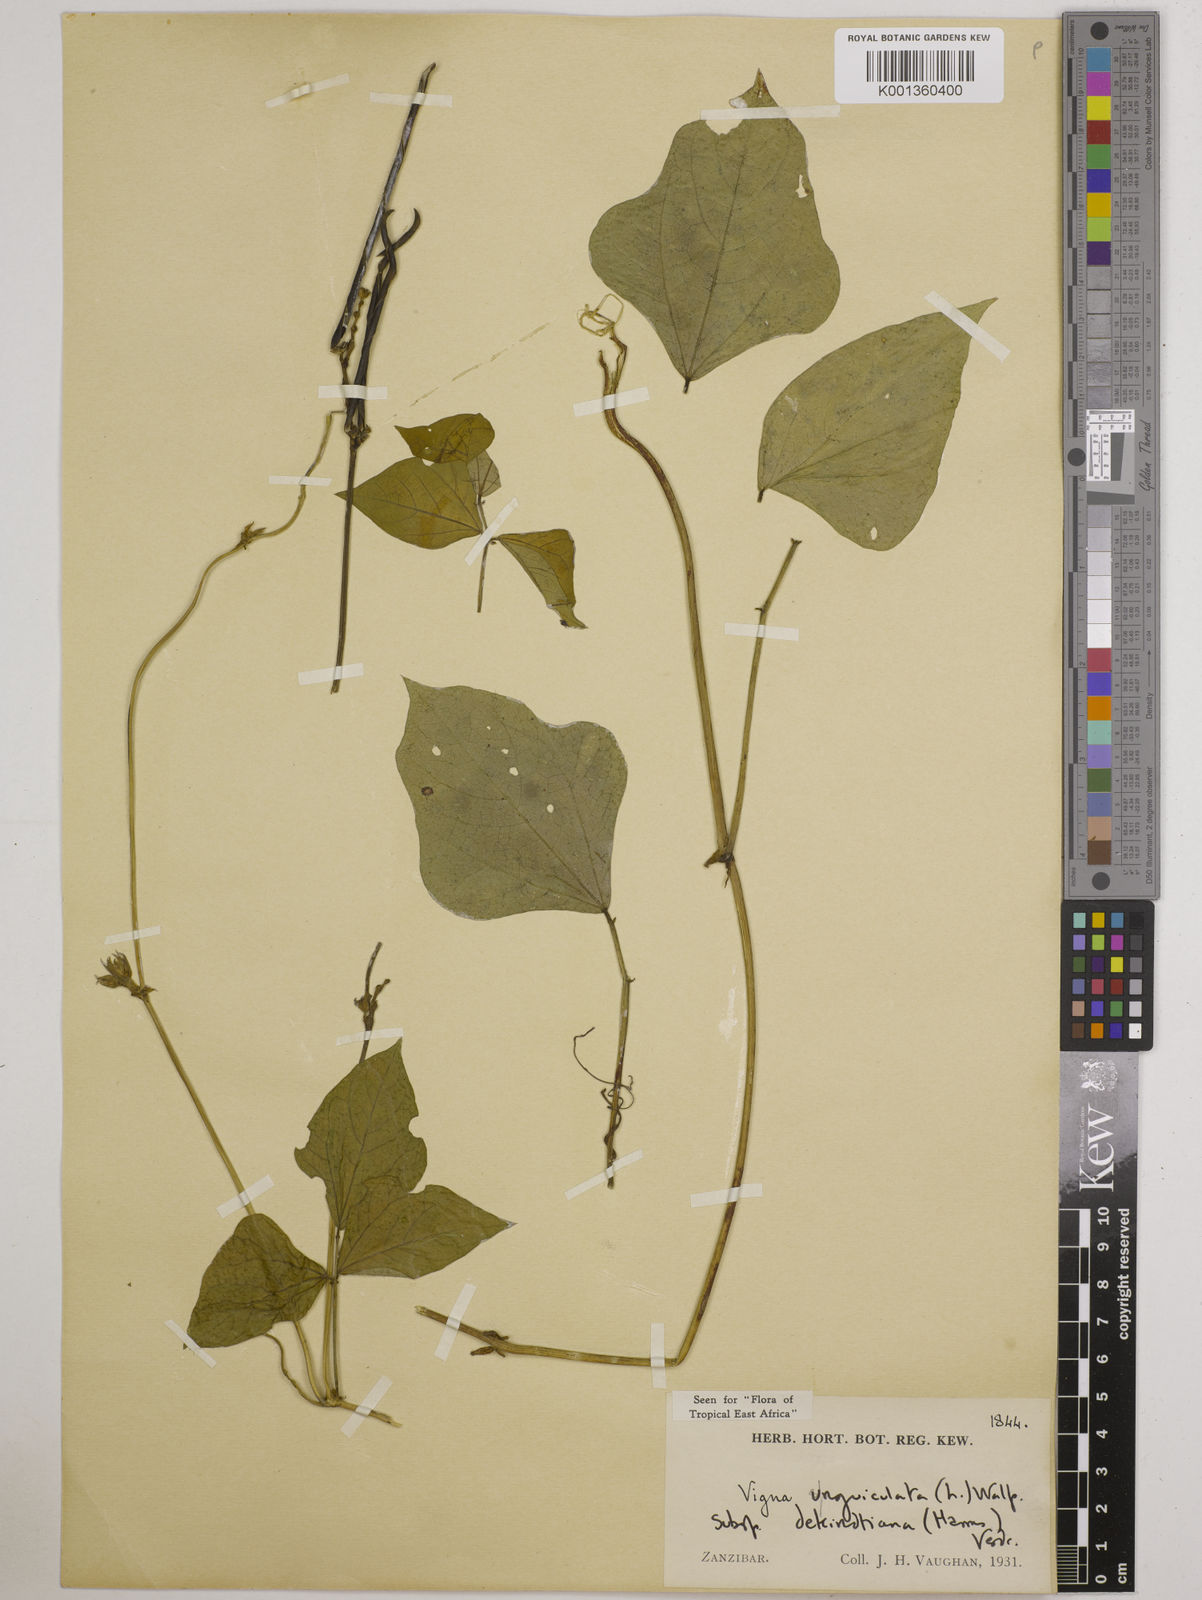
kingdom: Plantae
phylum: Tracheophyta
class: Magnoliopsida
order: Fabales
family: Fabaceae
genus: Vigna
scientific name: Vigna
